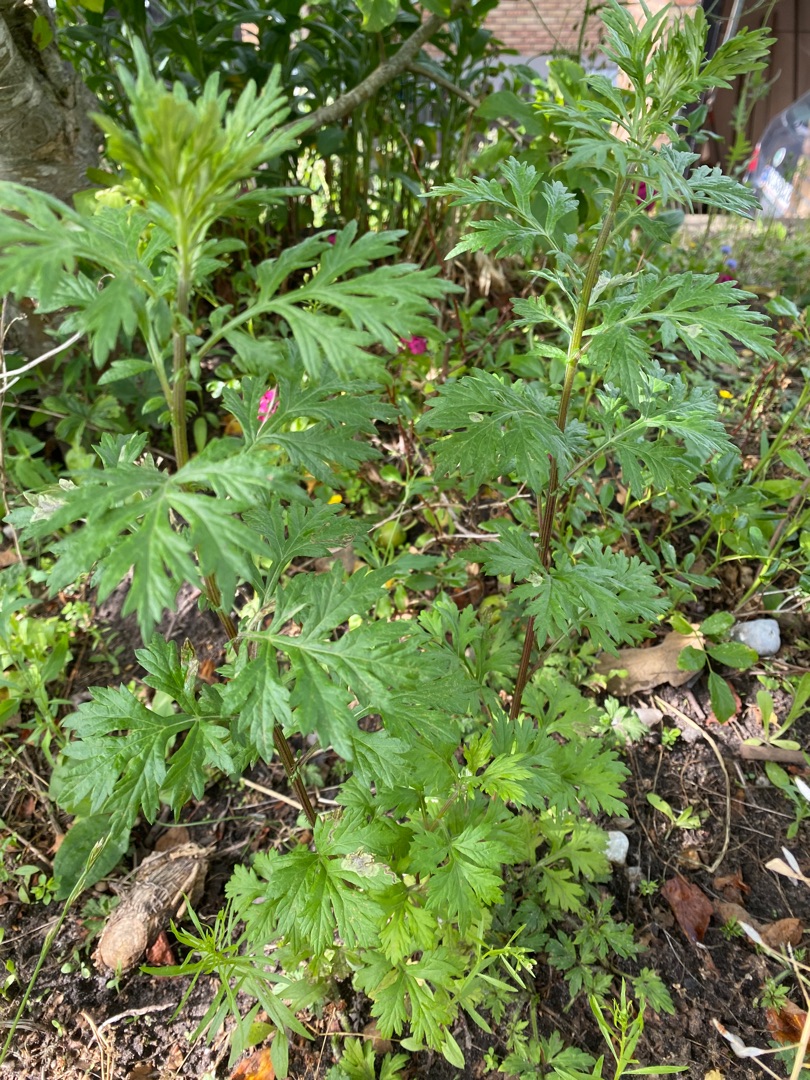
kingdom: Plantae
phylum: Tracheophyta
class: Magnoliopsida
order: Asterales
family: Asteraceae
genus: Artemisia
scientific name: Artemisia vulgaris
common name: Grå-bynke
